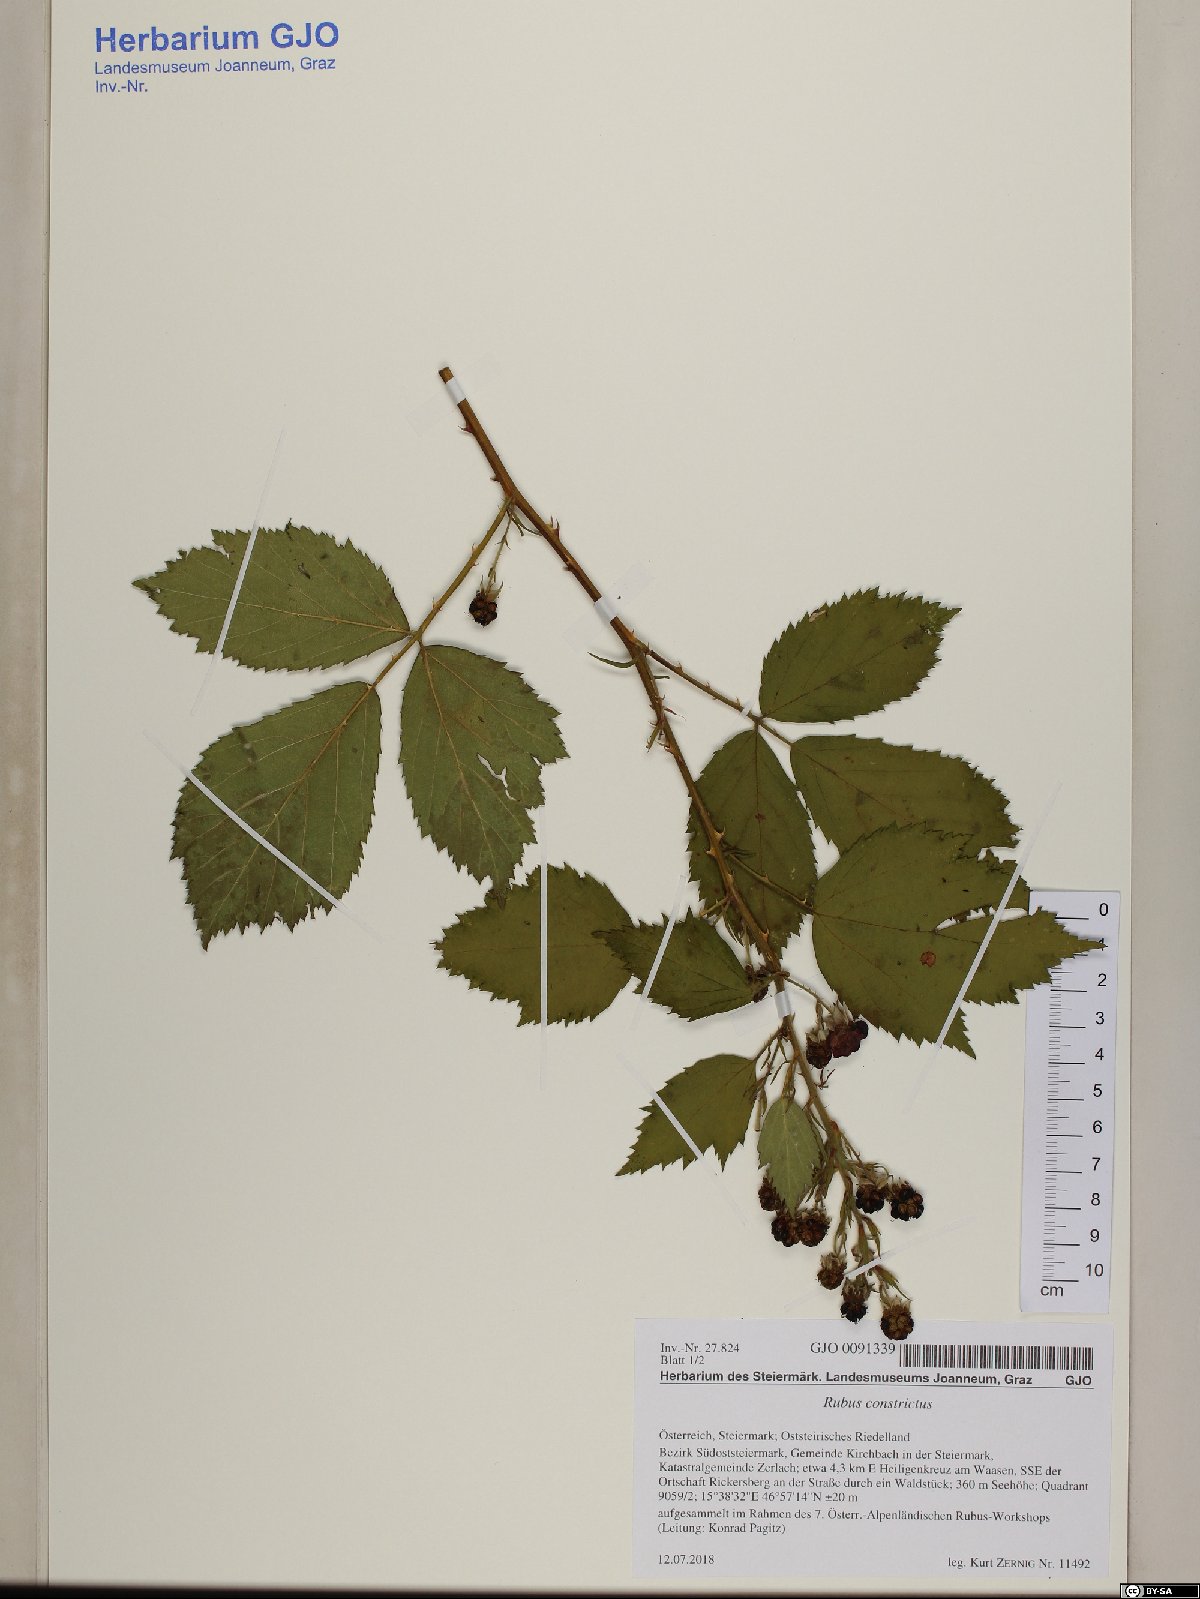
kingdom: Plantae
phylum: Tracheophyta
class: Magnoliopsida
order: Rosales
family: Rosaceae
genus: Rubus
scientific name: Rubus constrictus
